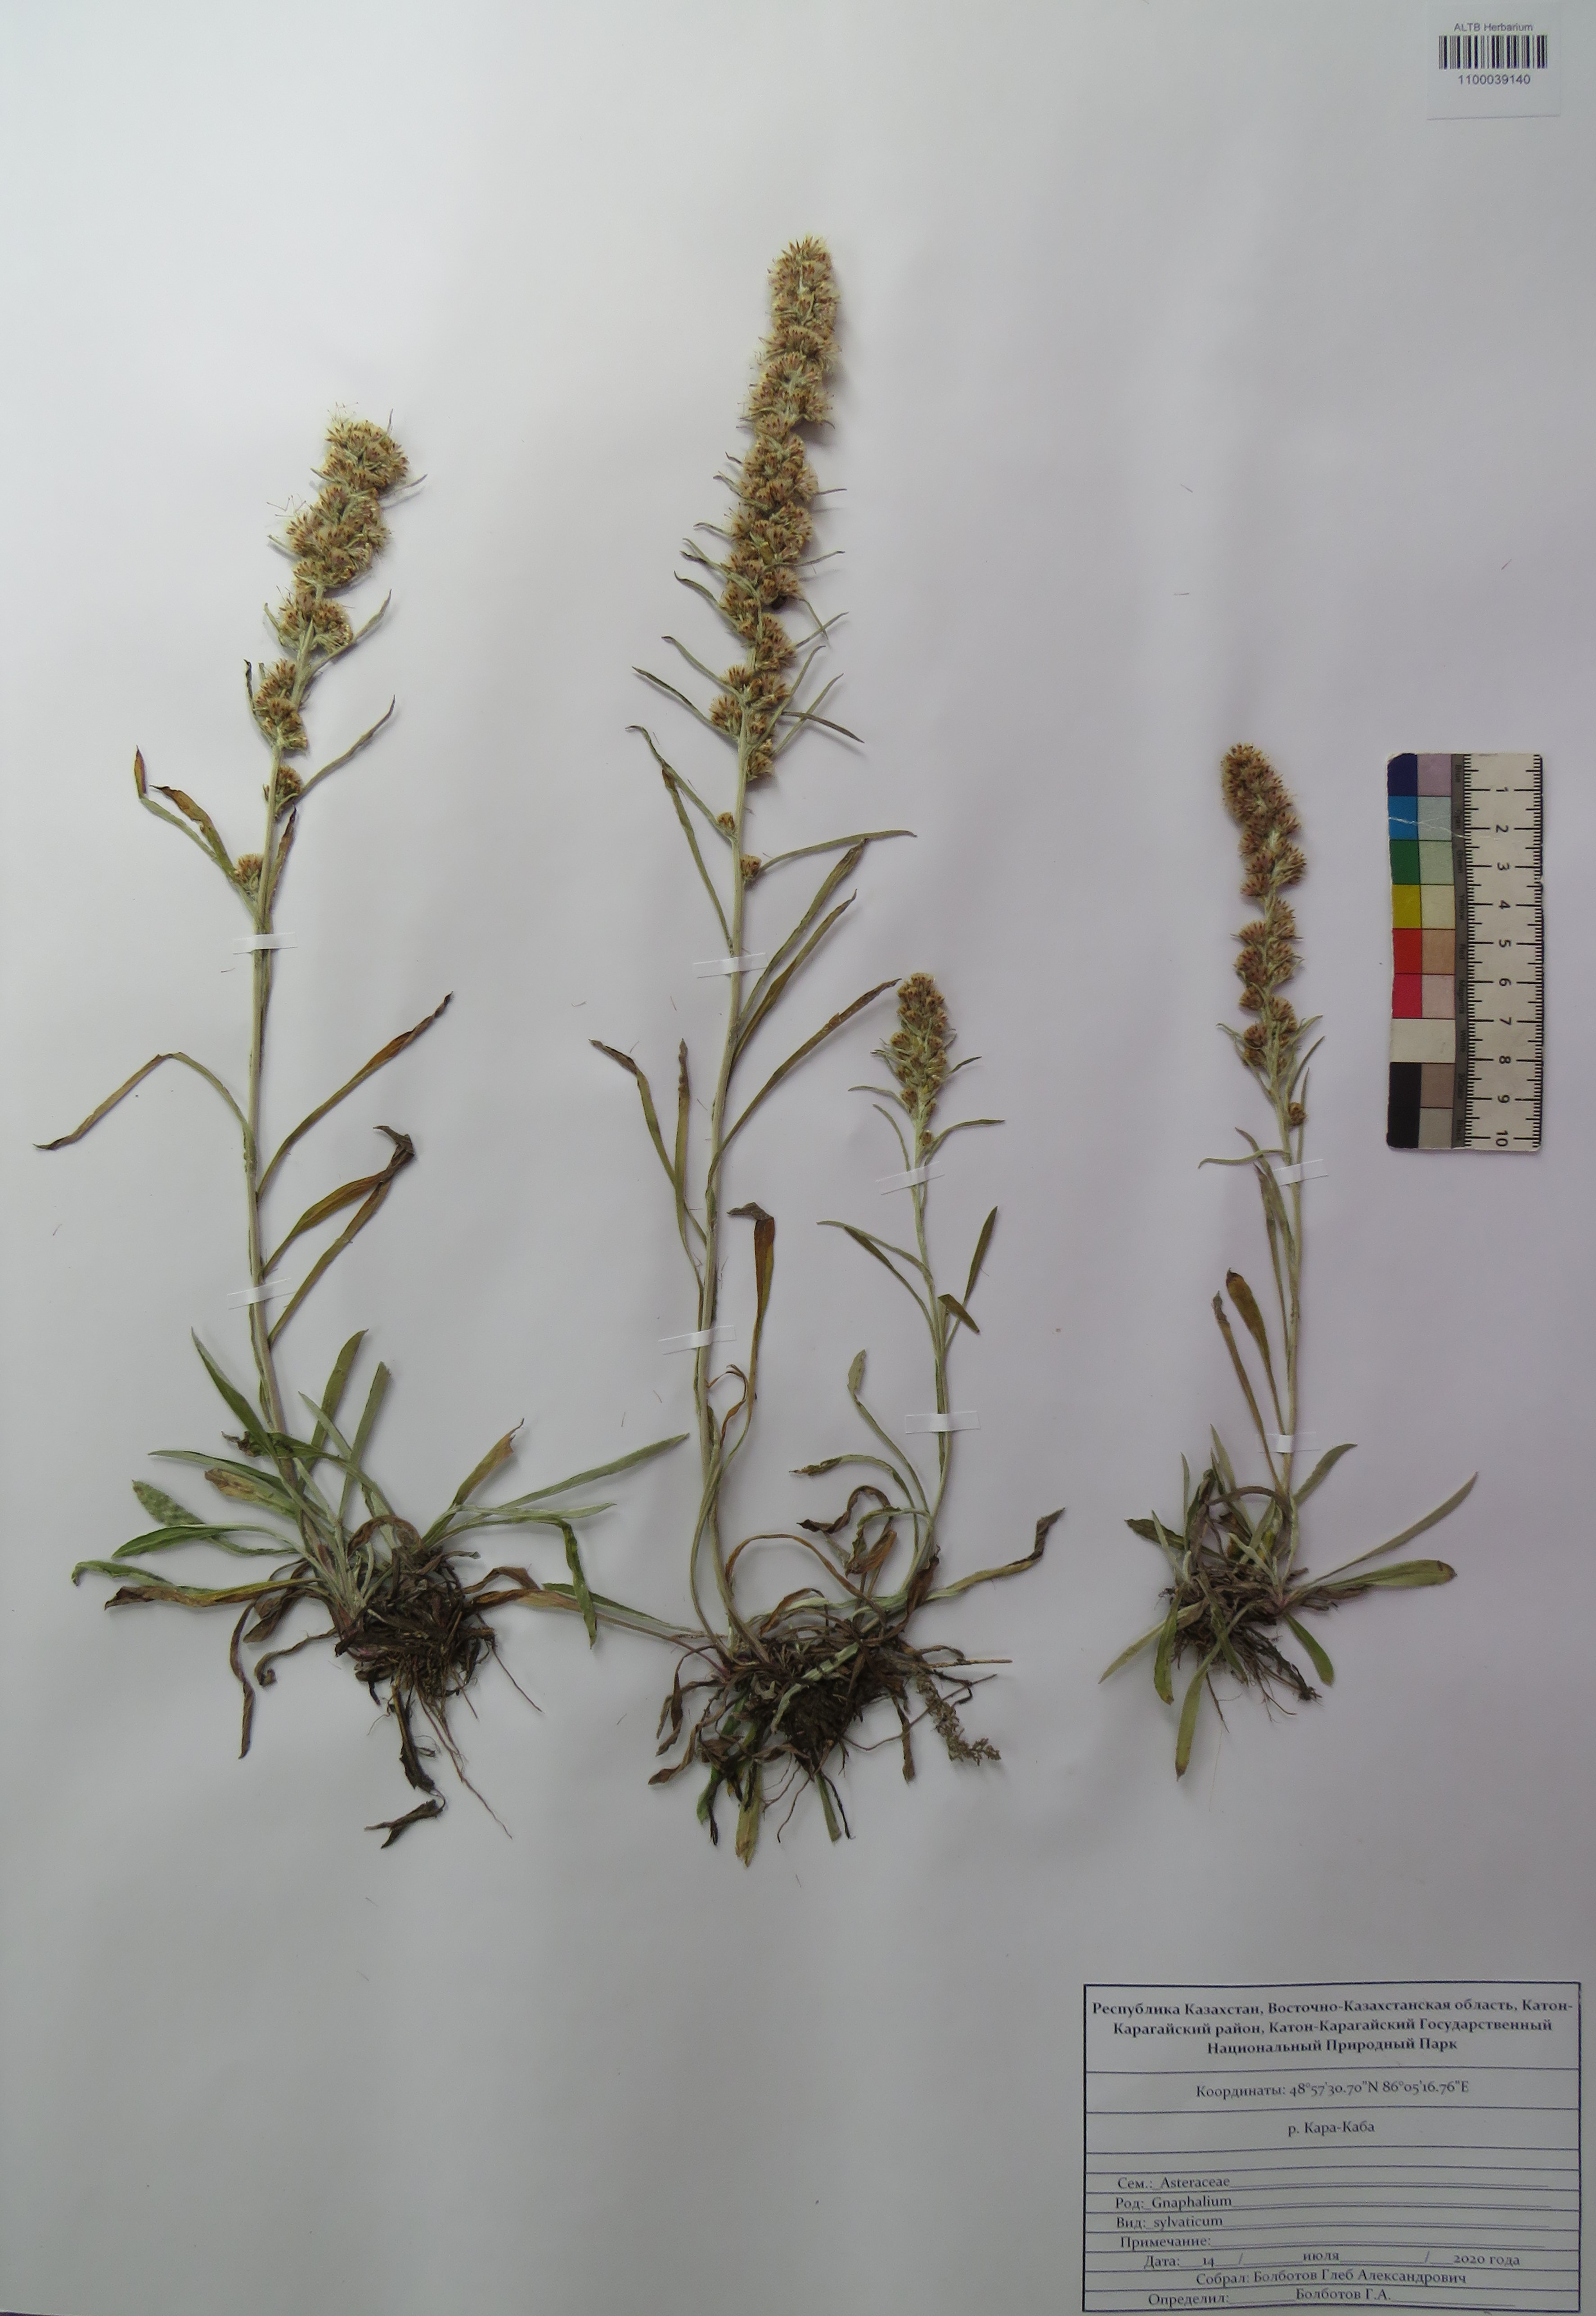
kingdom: Plantae
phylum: Tracheophyta
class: Magnoliopsida
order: Asterales
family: Asteraceae
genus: Omalotheca
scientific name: Omalotheca sylvatica
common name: Heath cudweed
